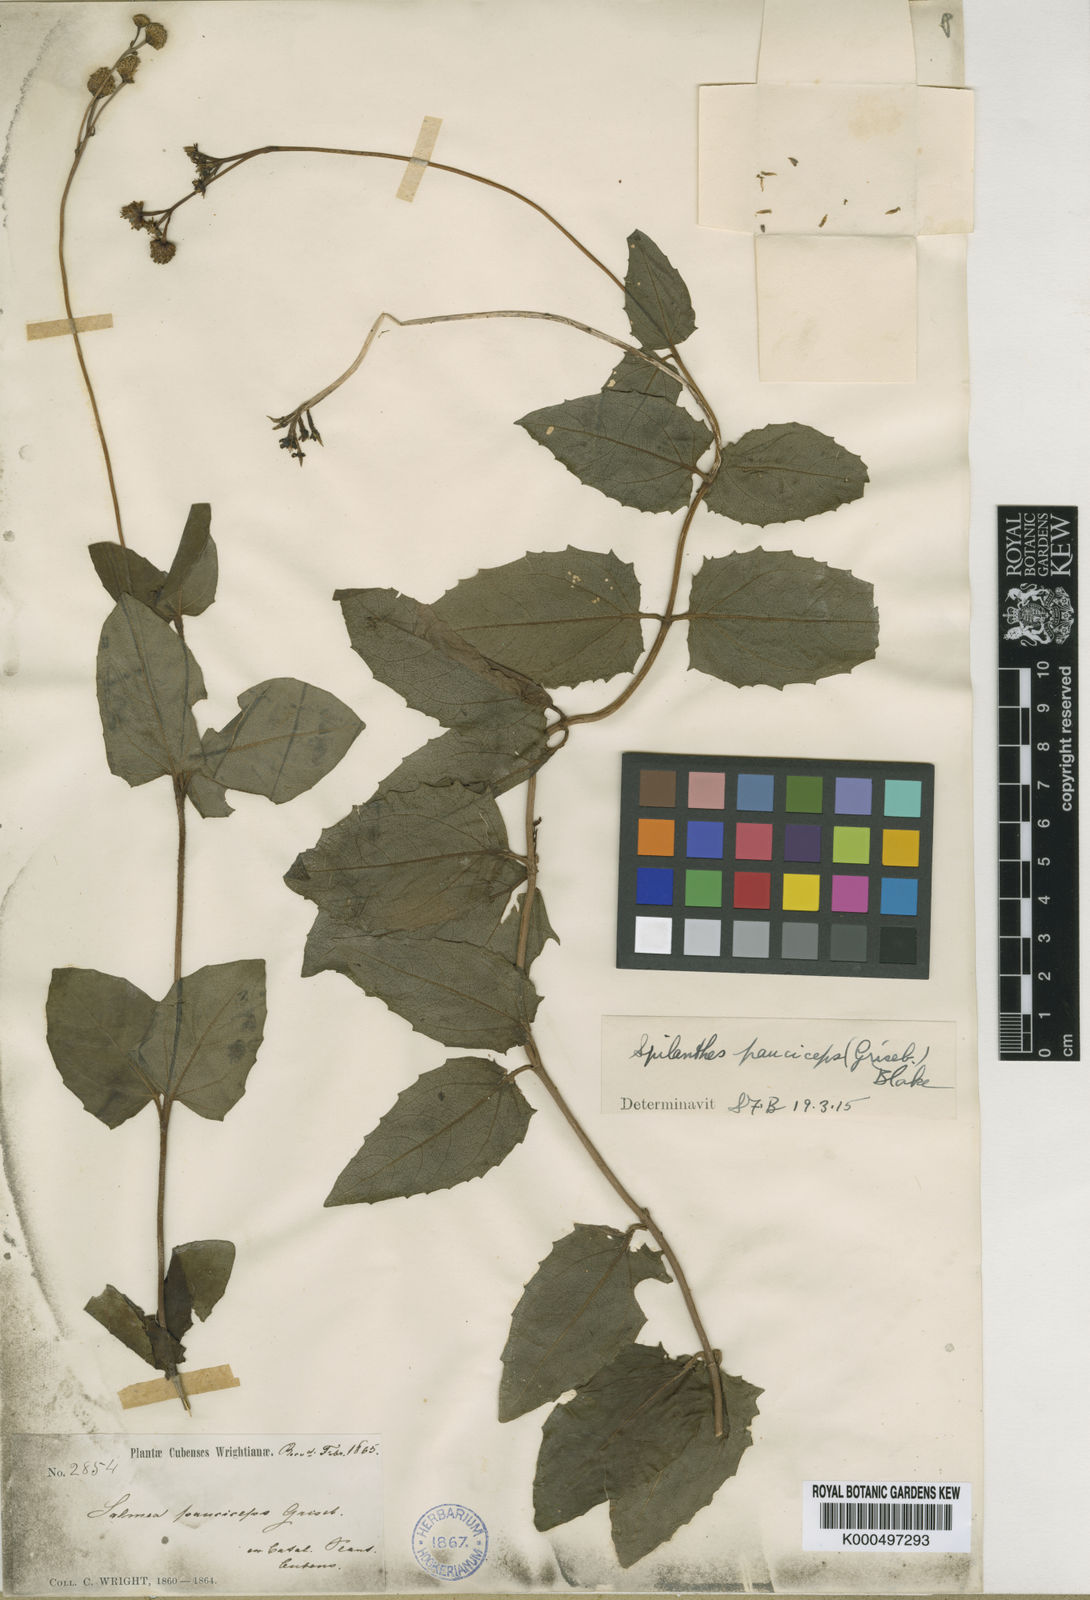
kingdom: Plantae
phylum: Tracheophyta
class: Magnoliopsida
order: Asterales
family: Asteraceae
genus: Salmea
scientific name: Salmea pauciceps
